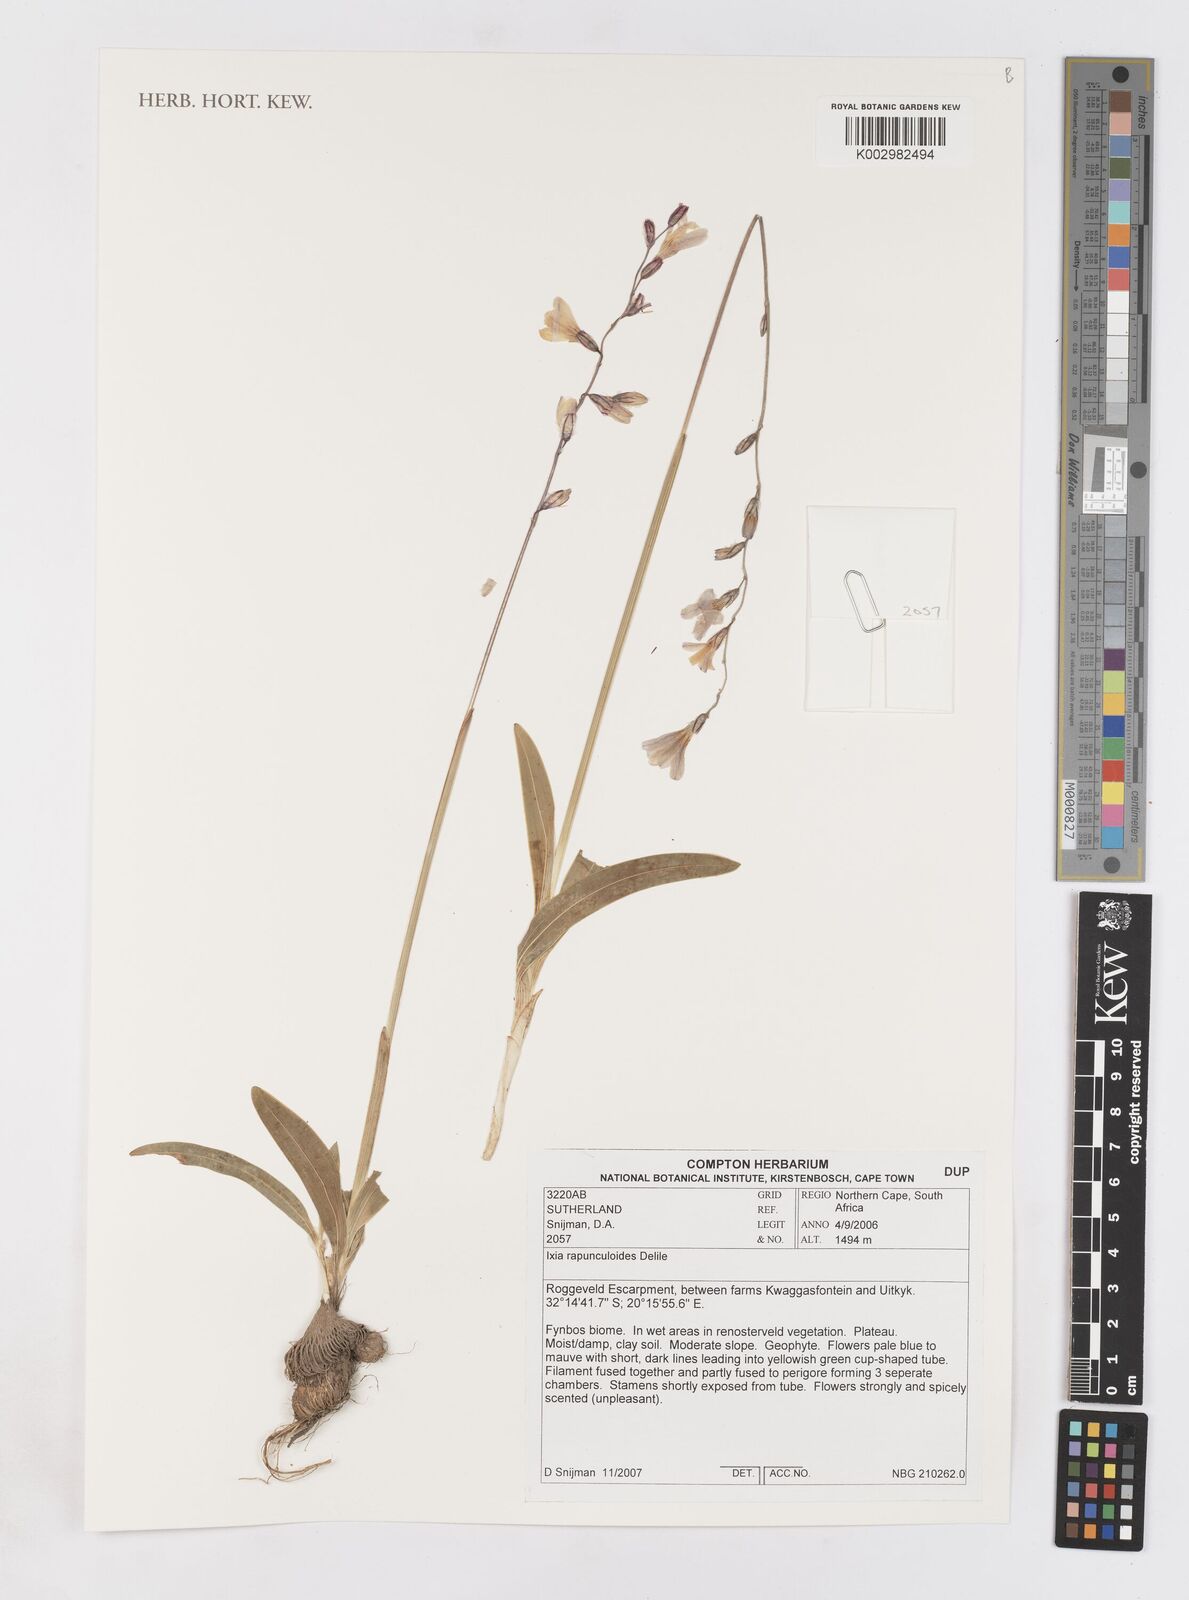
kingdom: Plantae
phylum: Tracheophyta
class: Liliopsida
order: Asparagales
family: Iridaceae
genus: Ixia
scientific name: Ixia rapunculoides
